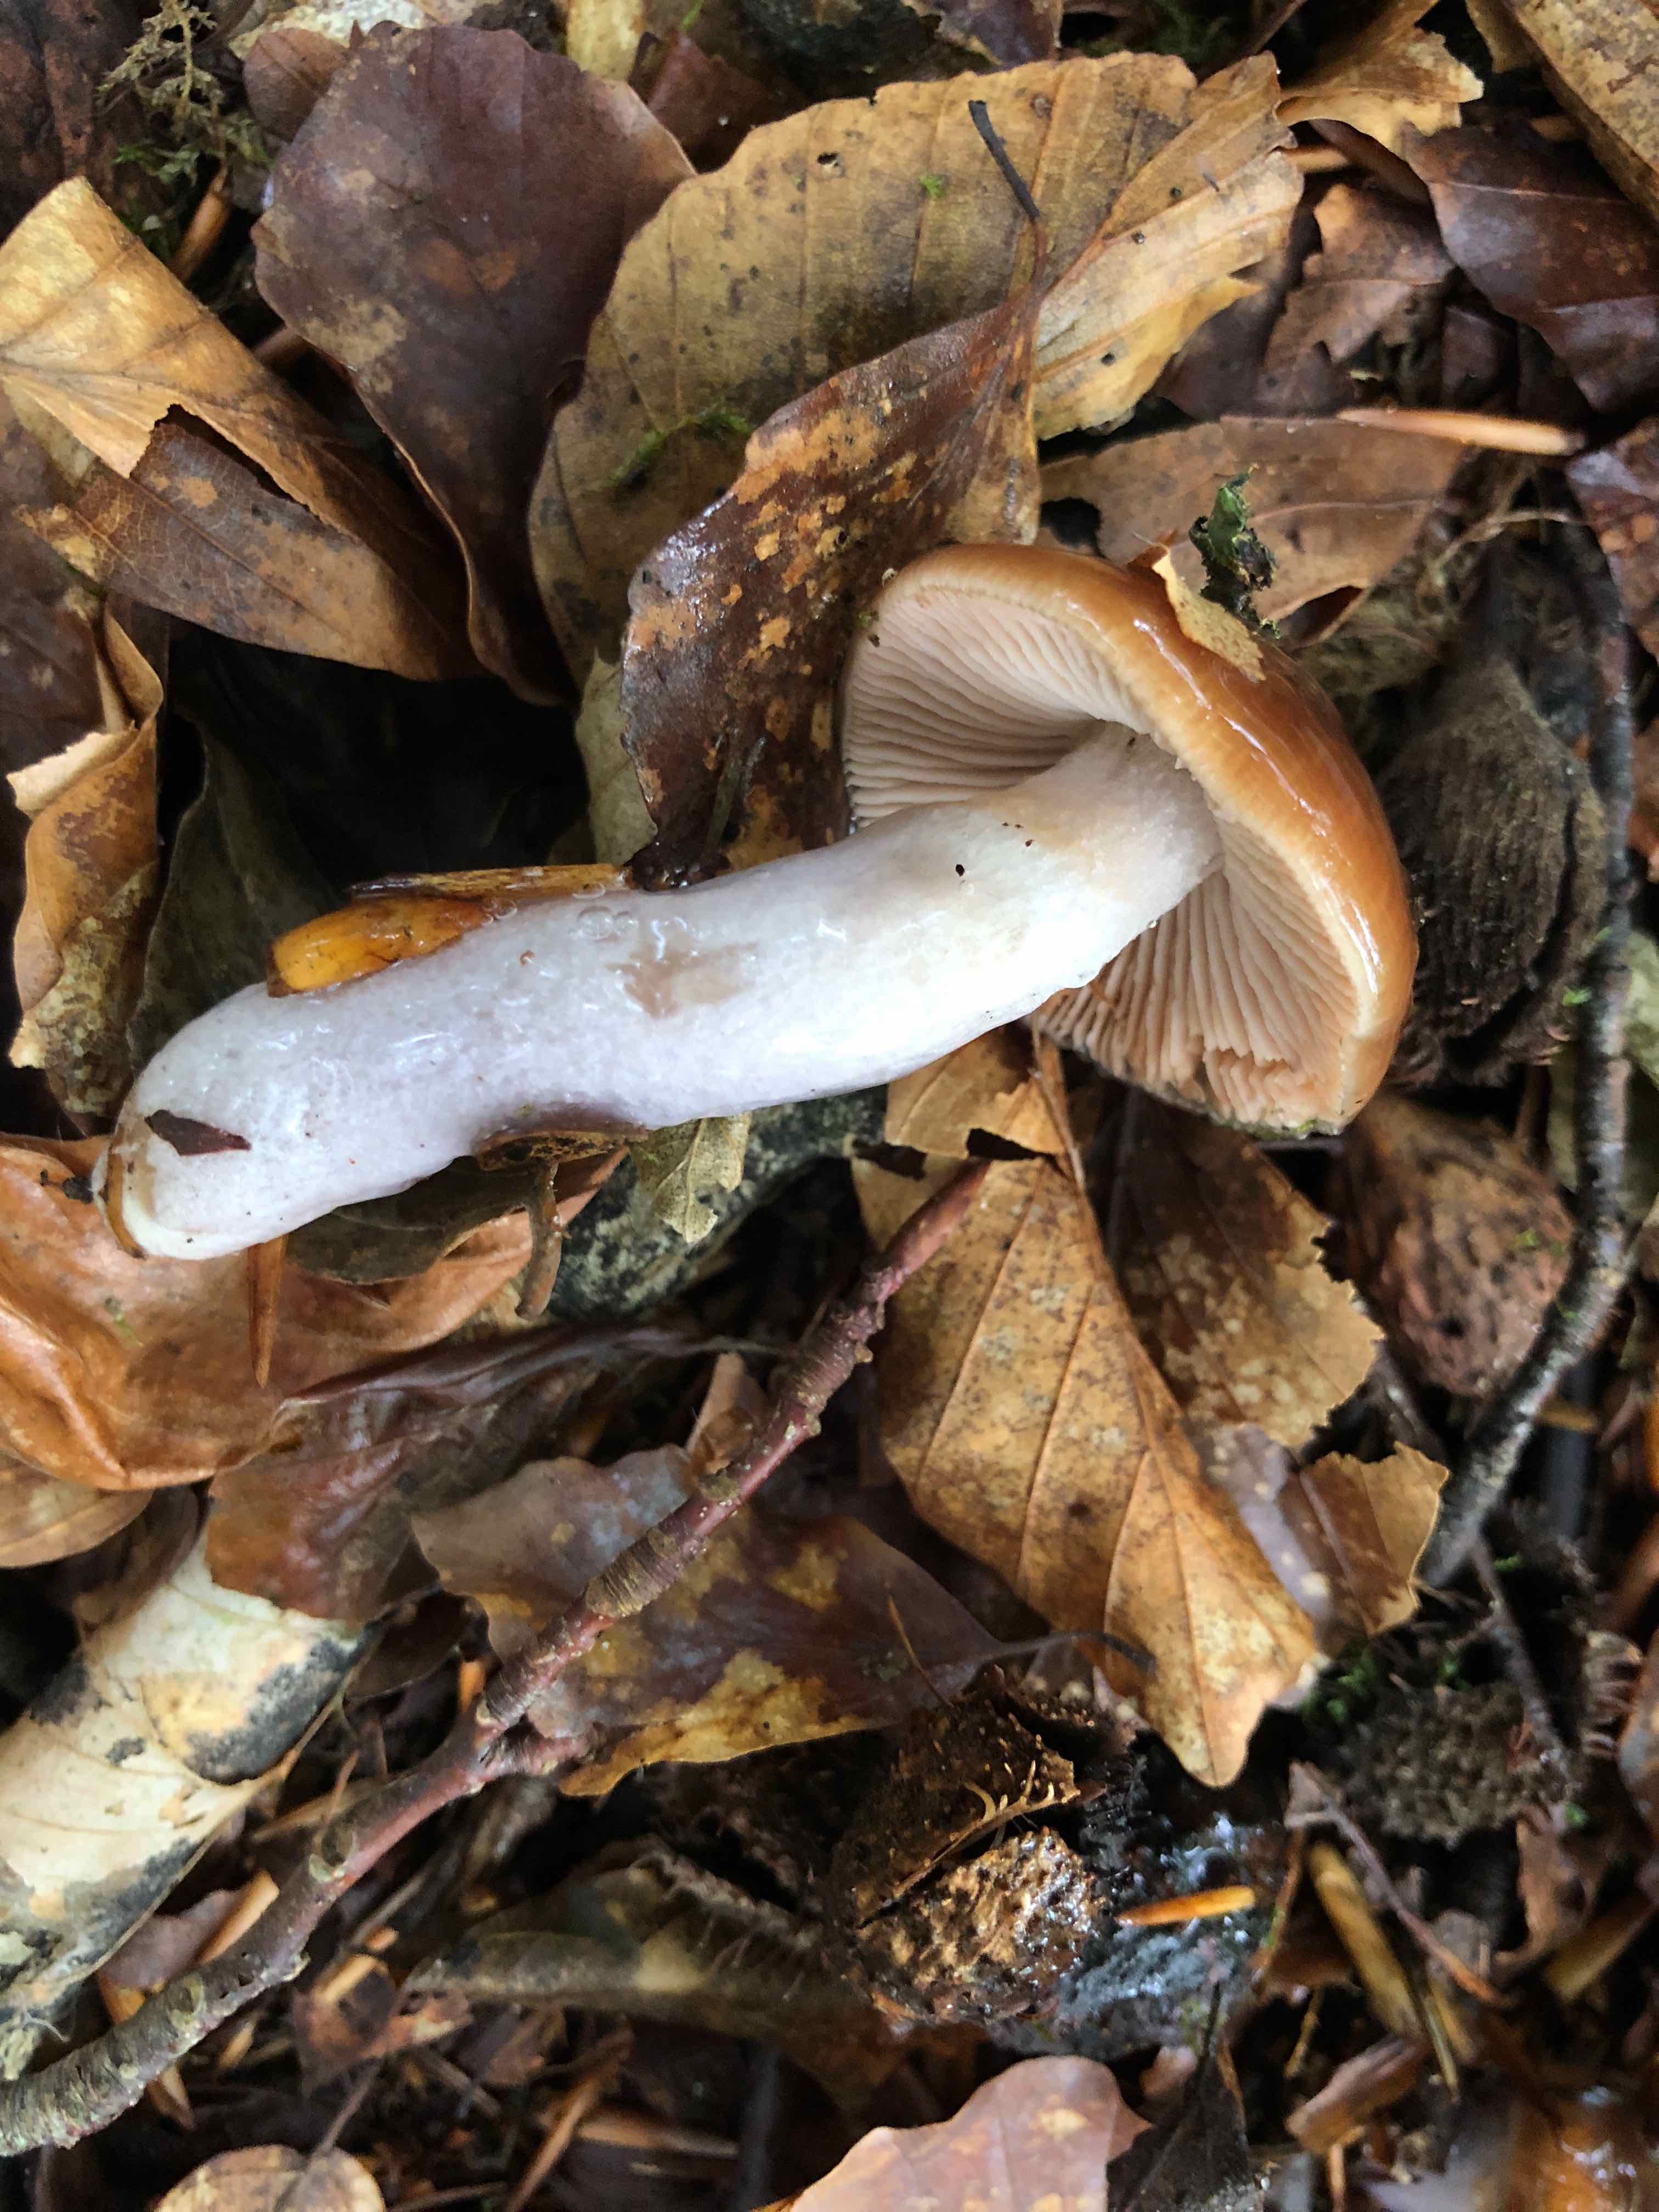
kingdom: Fungi
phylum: Basidiomycota
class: Agaricomycetes
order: Agaricales
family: Cortinariaceae
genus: Cortinarius
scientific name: Cortinarius stillatitius
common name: honningduftende slørhat
